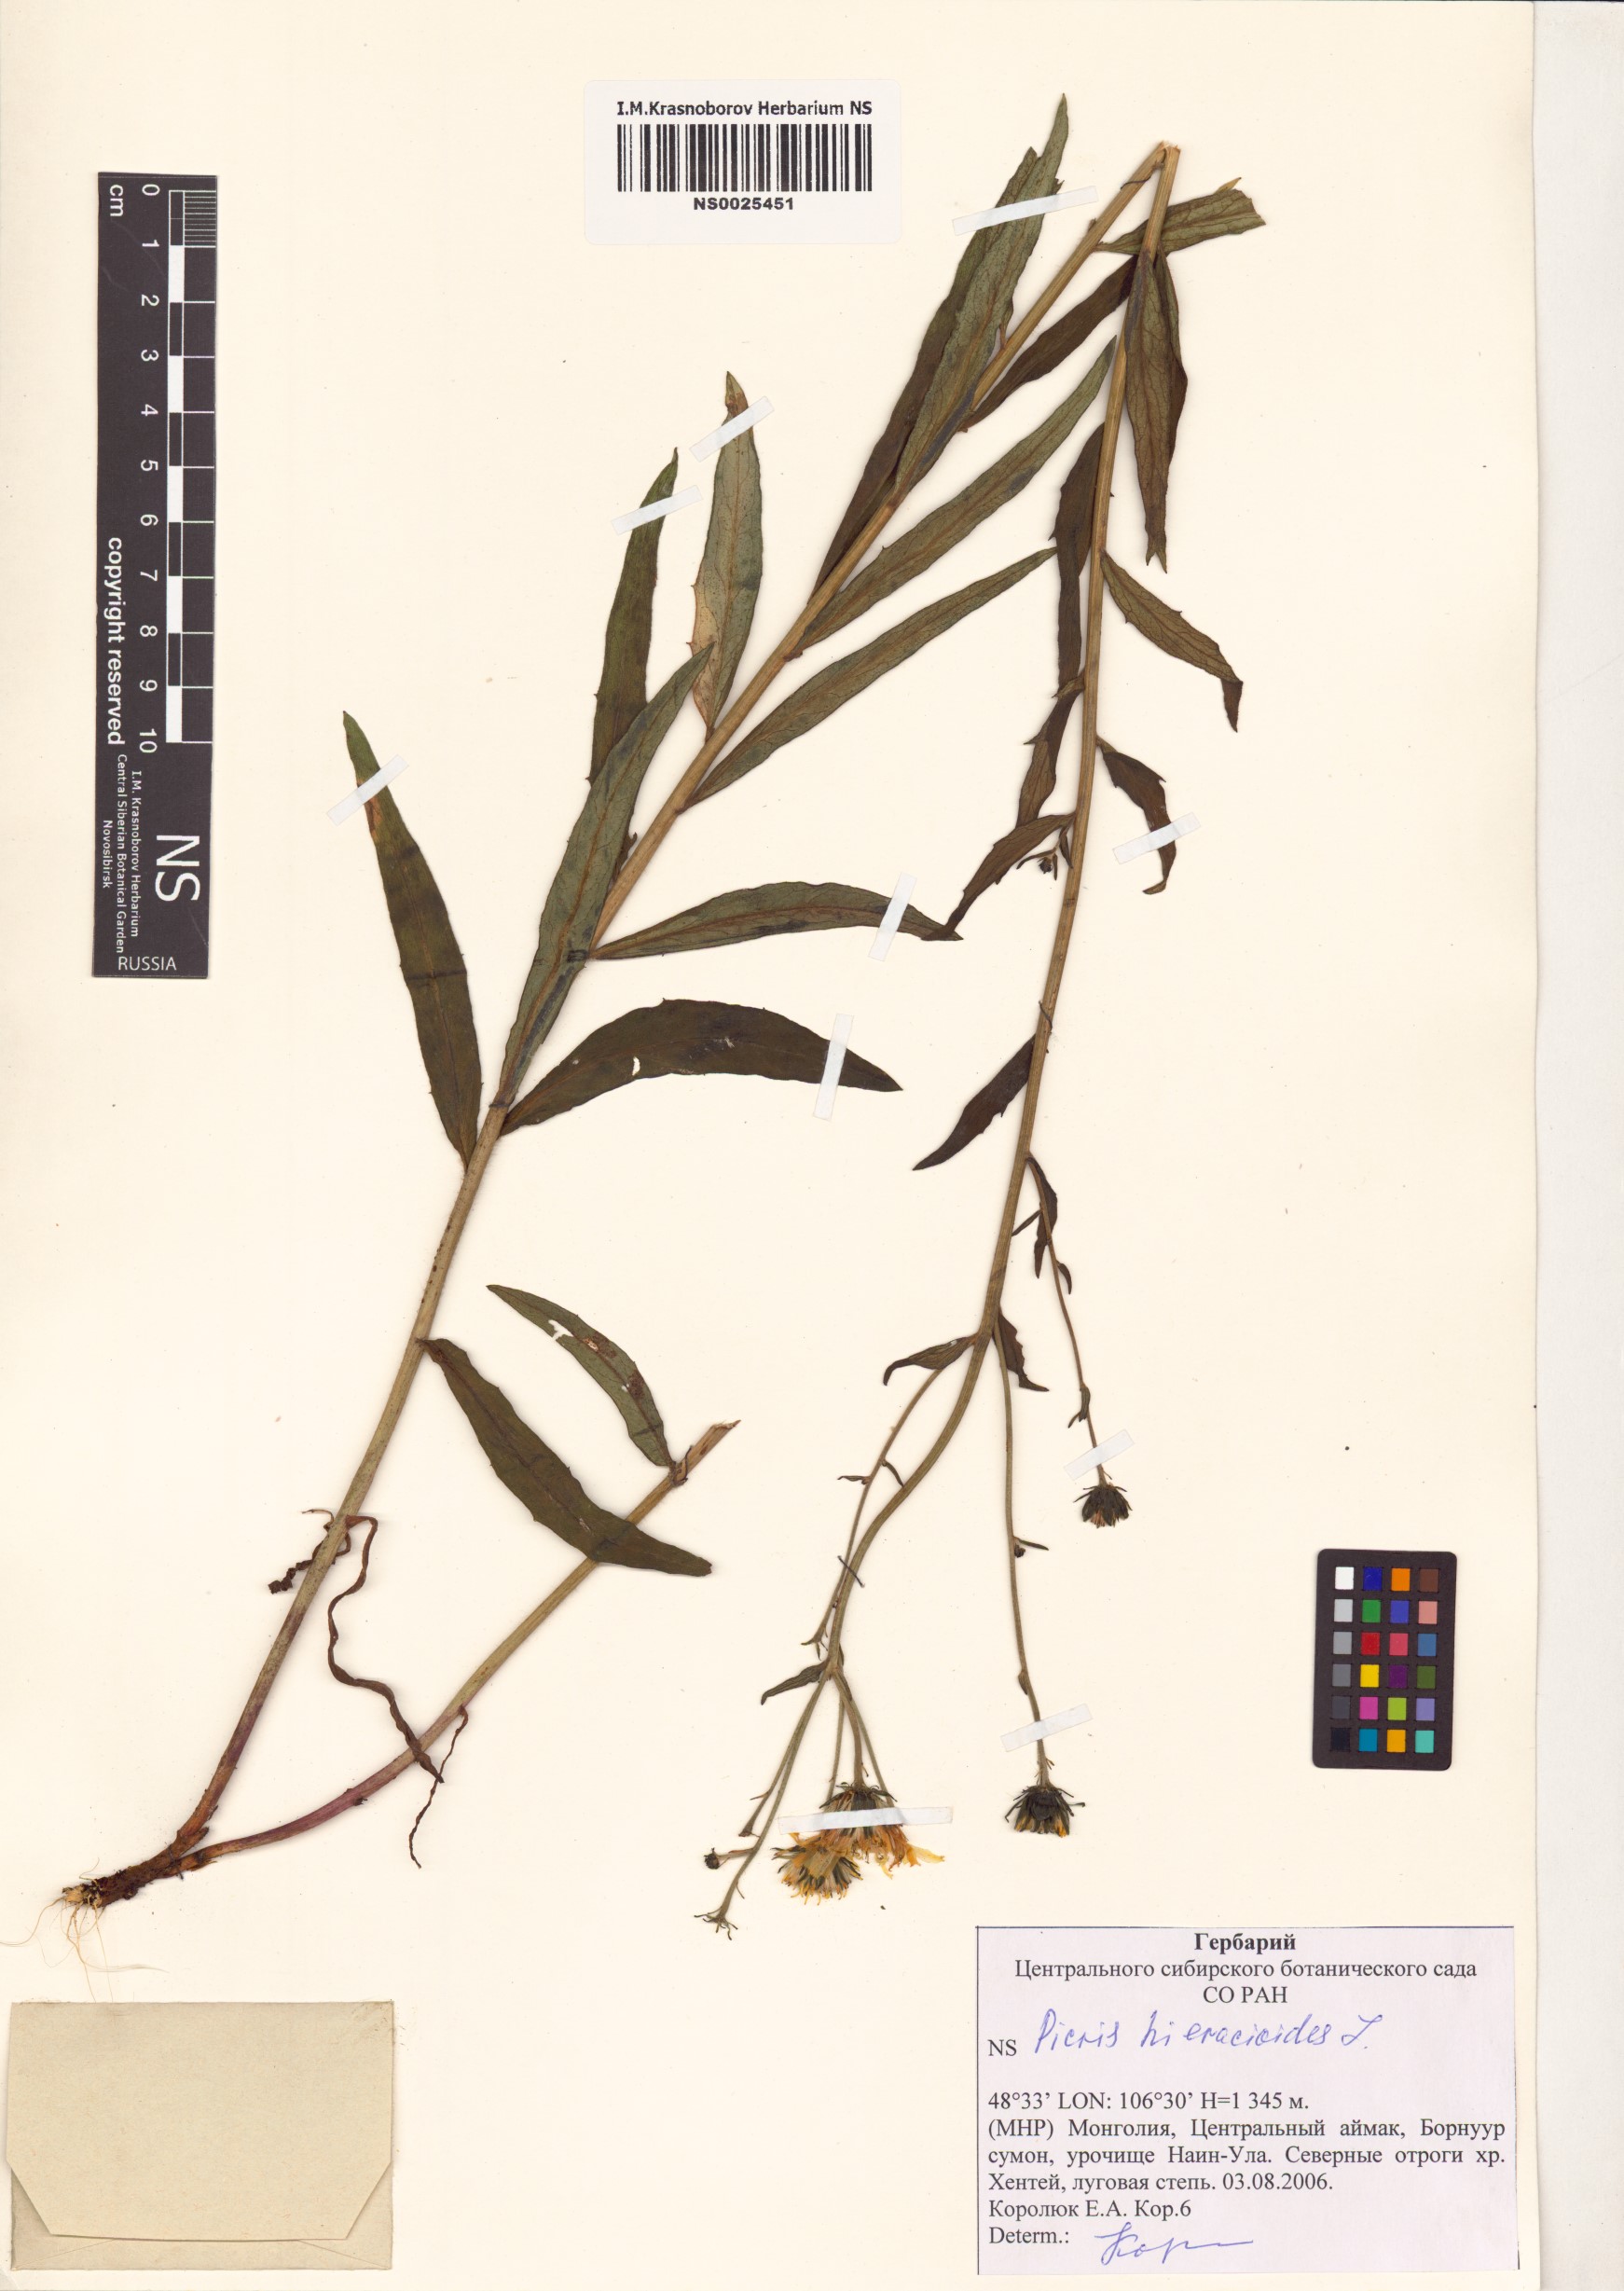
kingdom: Plantae
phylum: Tracheophyta
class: Magnoliopsida
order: Asterales
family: Asteraceae
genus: Picris
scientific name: Picris hieracioides
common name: Hawkweed oxtongue
